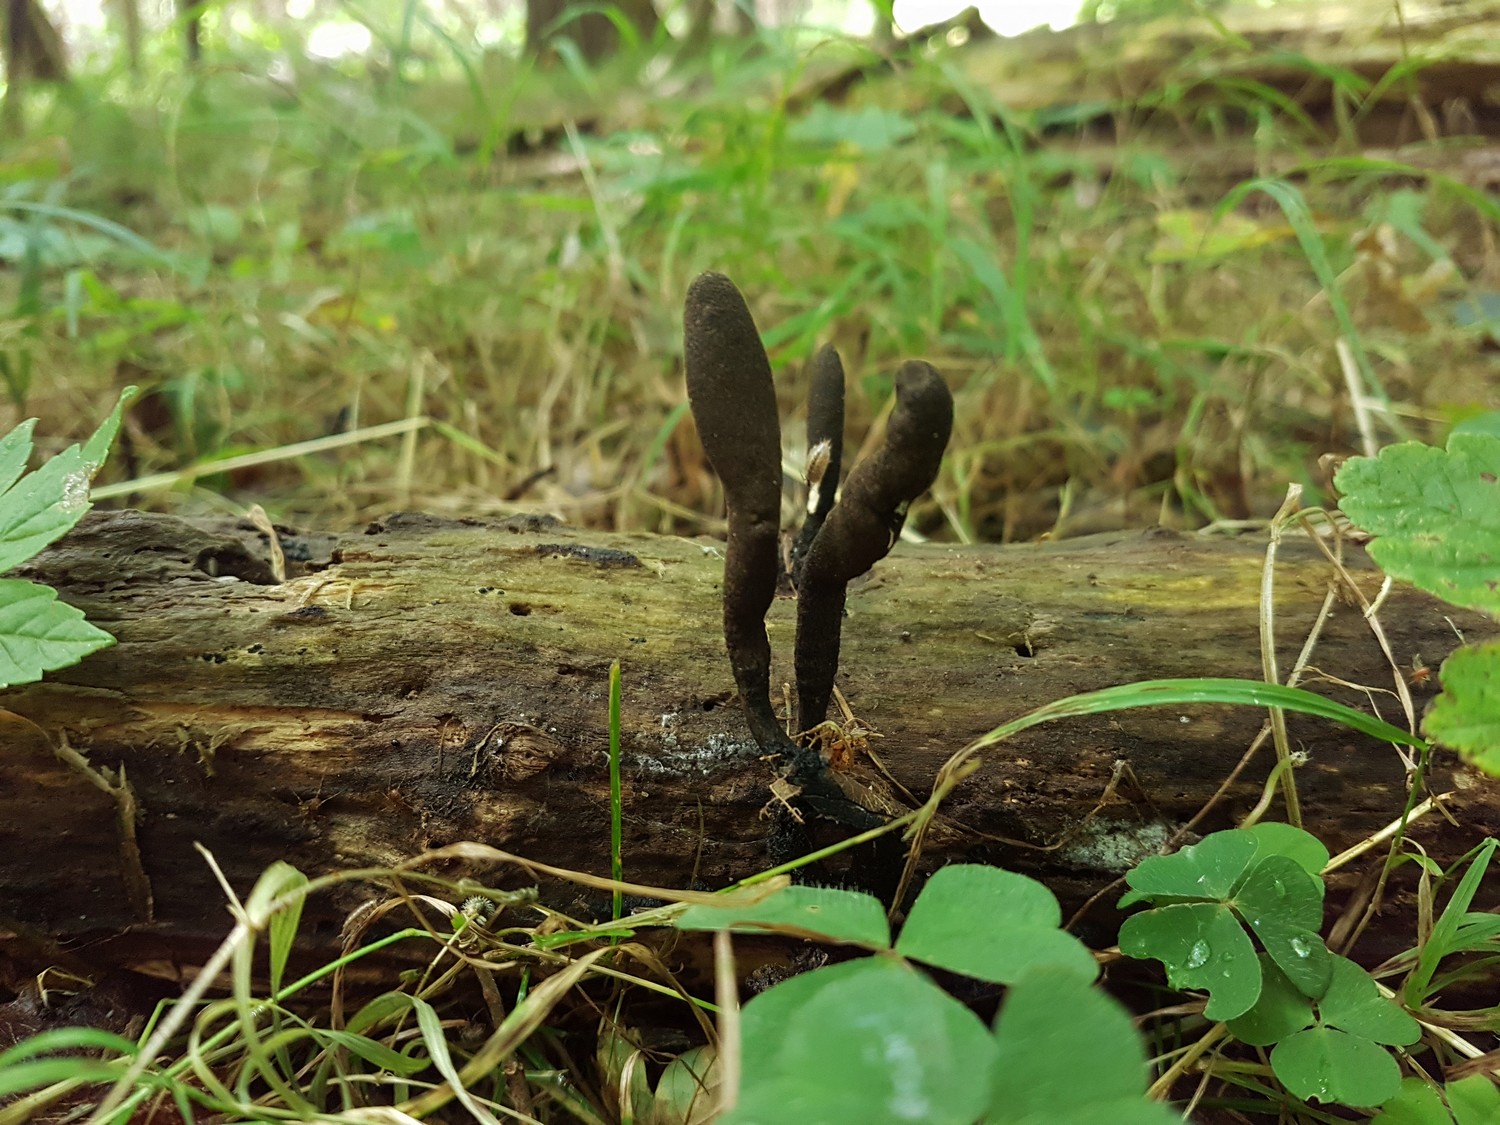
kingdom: Fungi
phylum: Ascomycota
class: Sordariomycetes
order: Xylariales
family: Xylariaceae
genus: Xylaria
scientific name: Xylaria longipes
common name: slank stødsvamp
